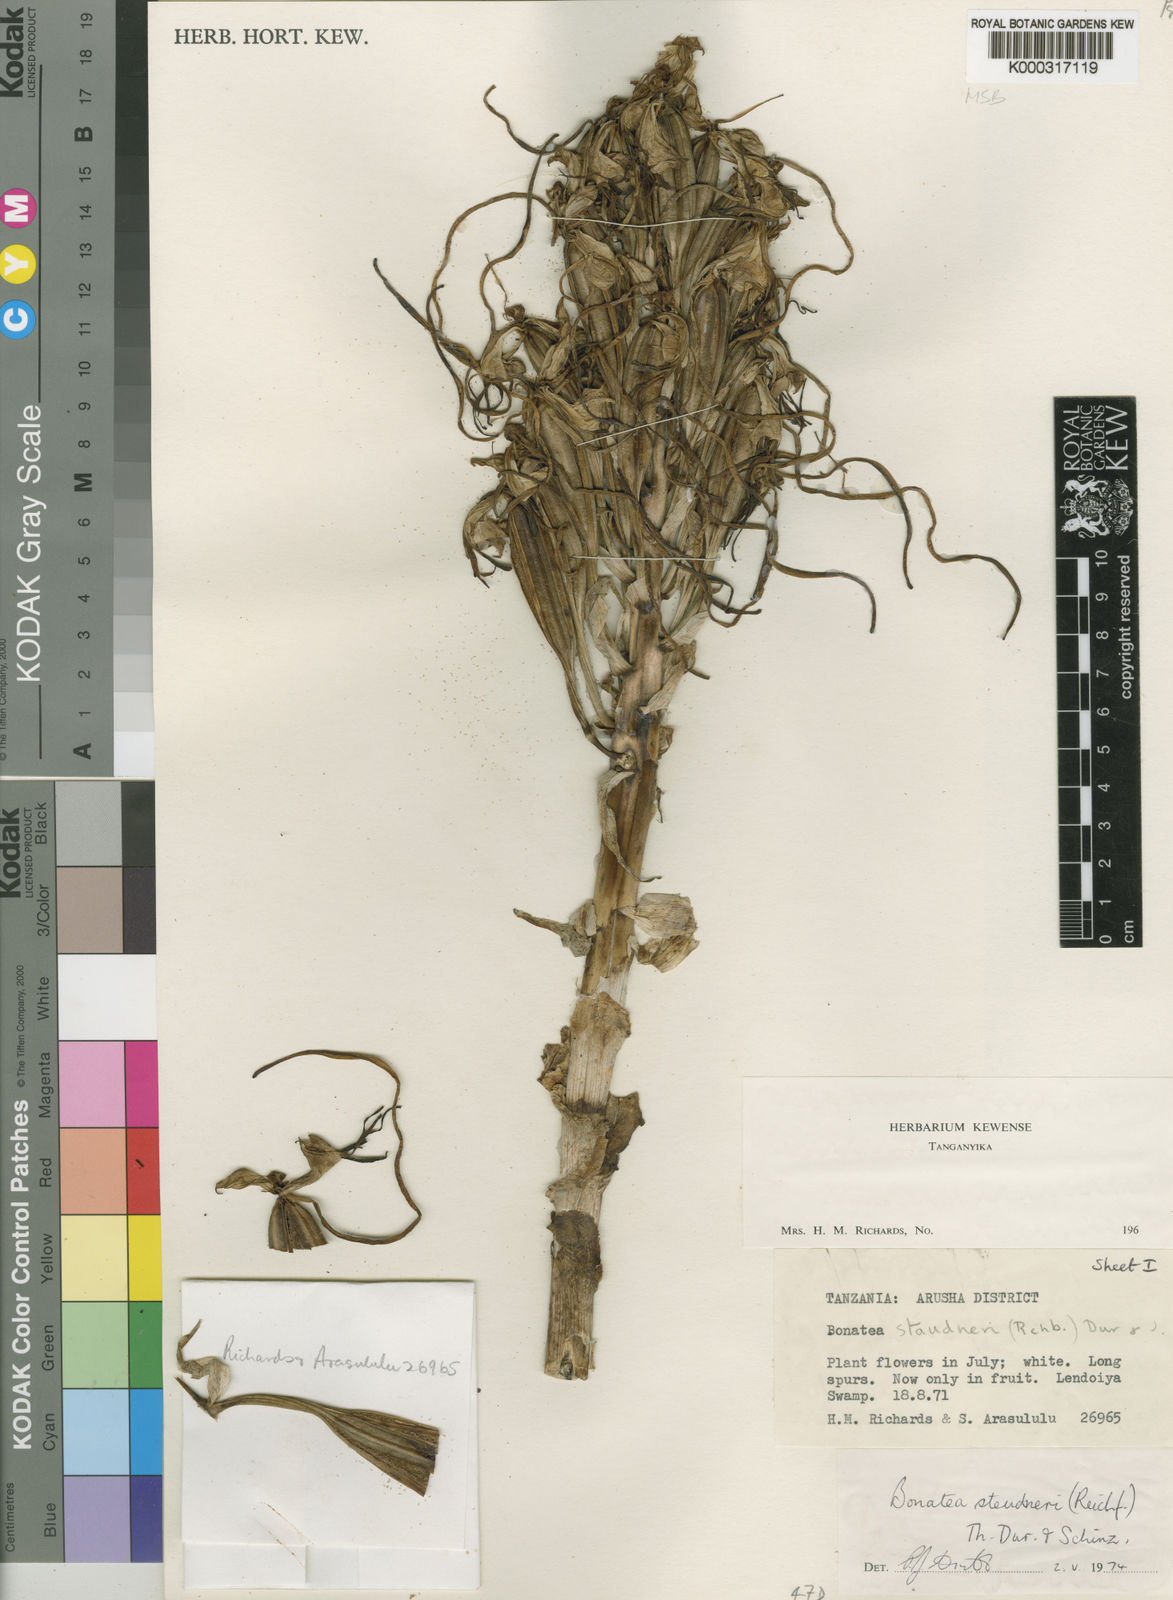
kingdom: Plantae
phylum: Tracheophyta
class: Liliopsida
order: Asparagales
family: Orchidaceae
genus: Bonatea
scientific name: Bonatea steudneri
